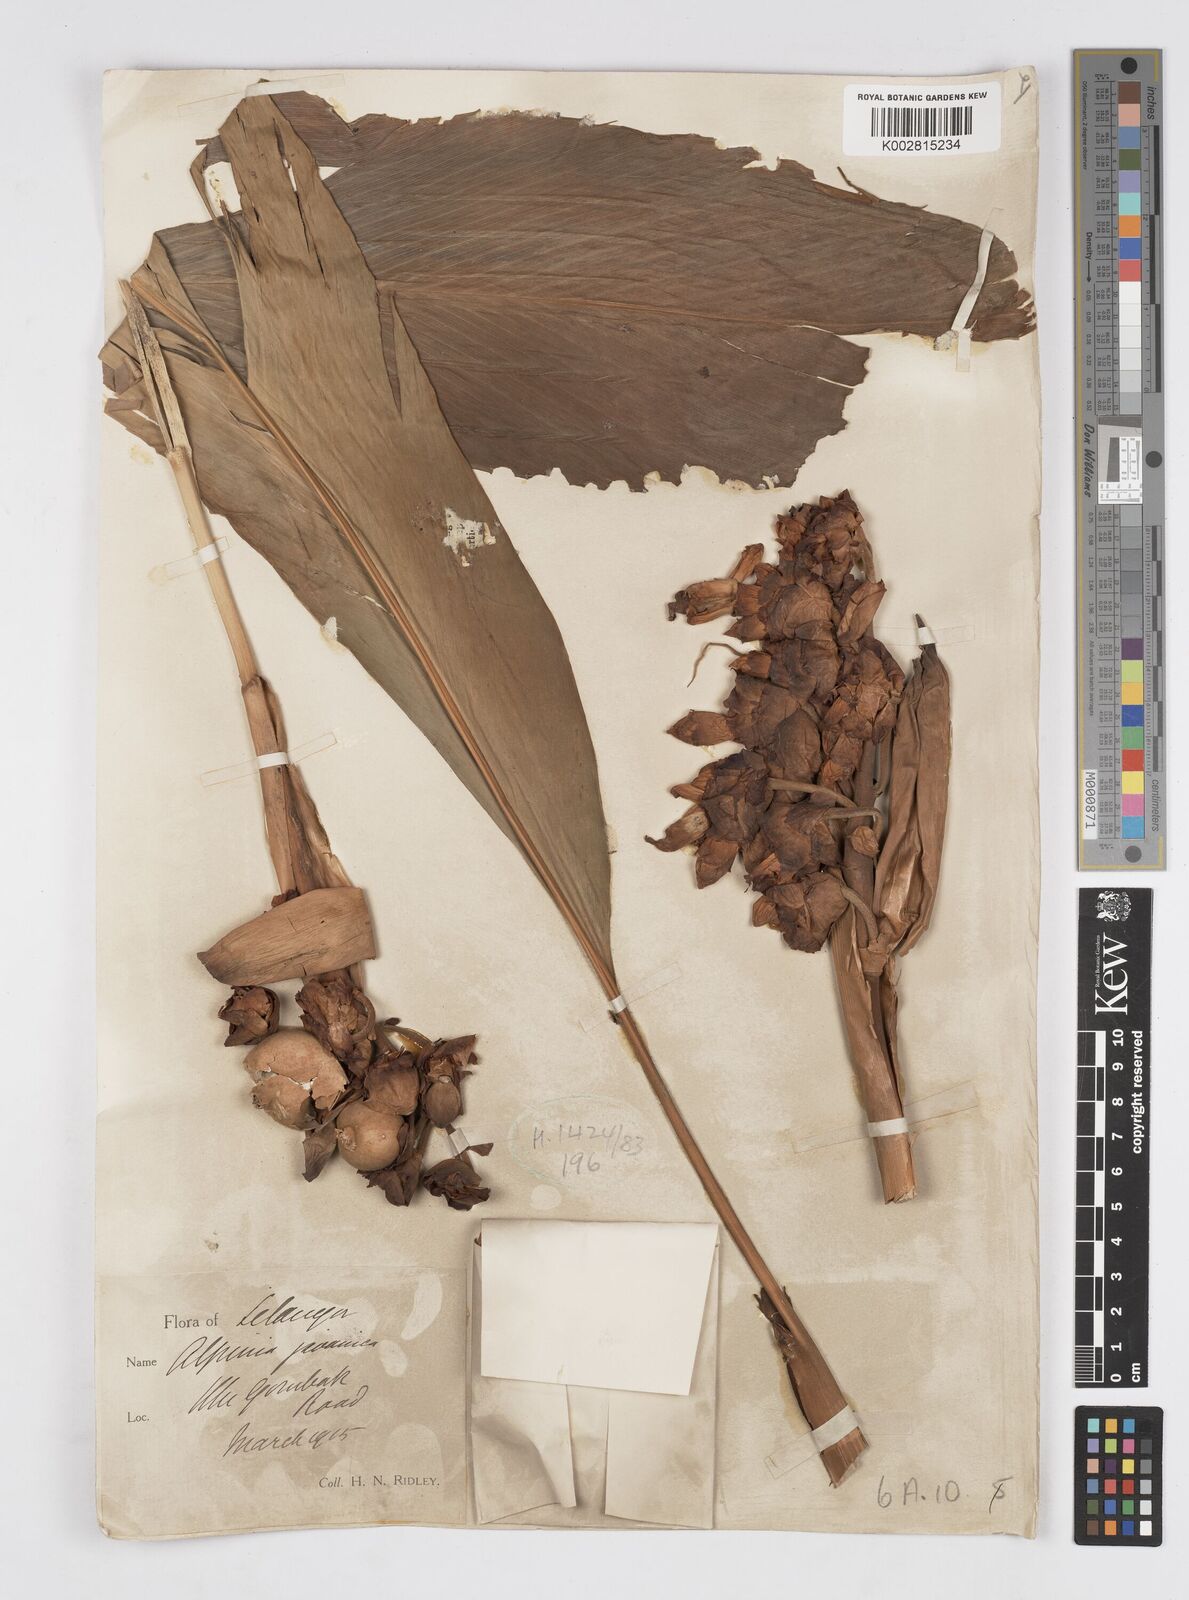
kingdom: Plantae
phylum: Tracheophyta
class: Liliopsida
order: Zingiberales
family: Zingiberaceae
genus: Alpinia
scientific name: Alpinia javanica
